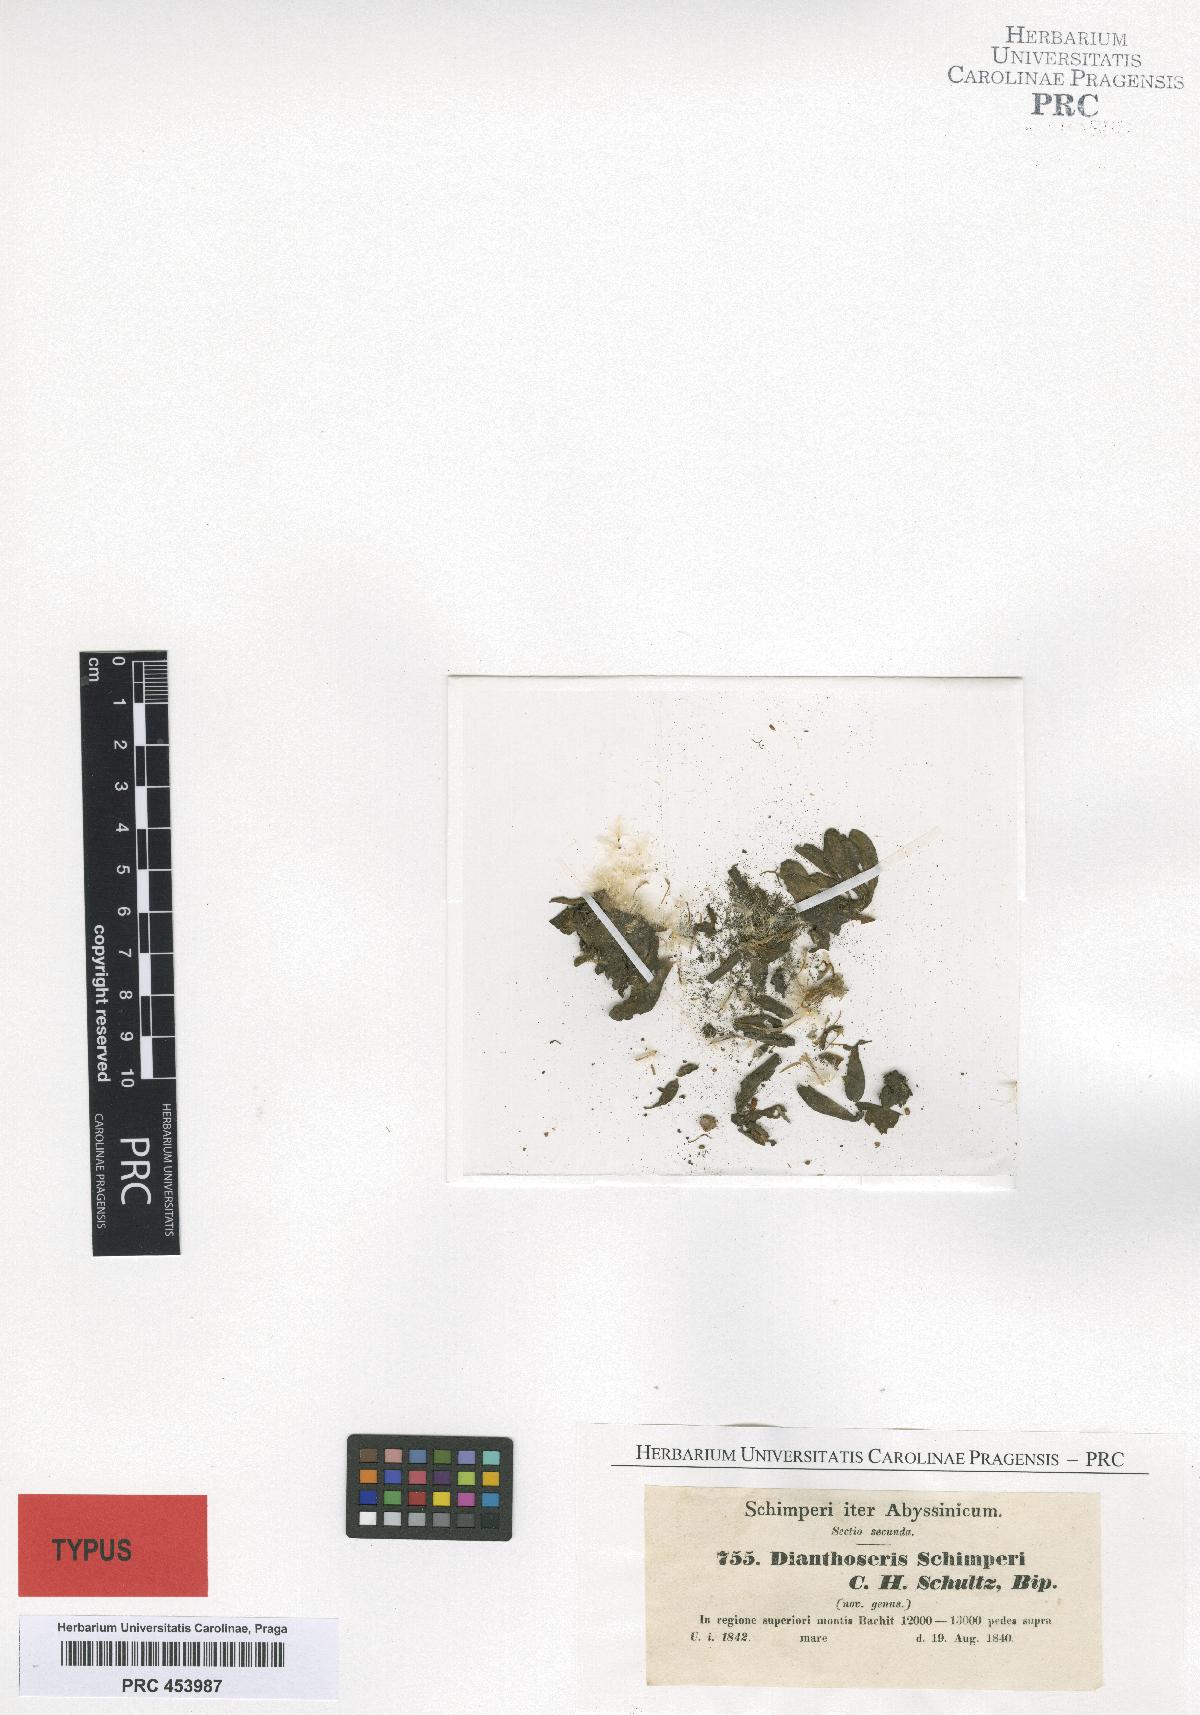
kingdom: Plantae
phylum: Tracheophyta
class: Magnoliopsida
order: Asterales
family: Asteraceae
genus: Crepis
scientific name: Crepis dianthoseris
